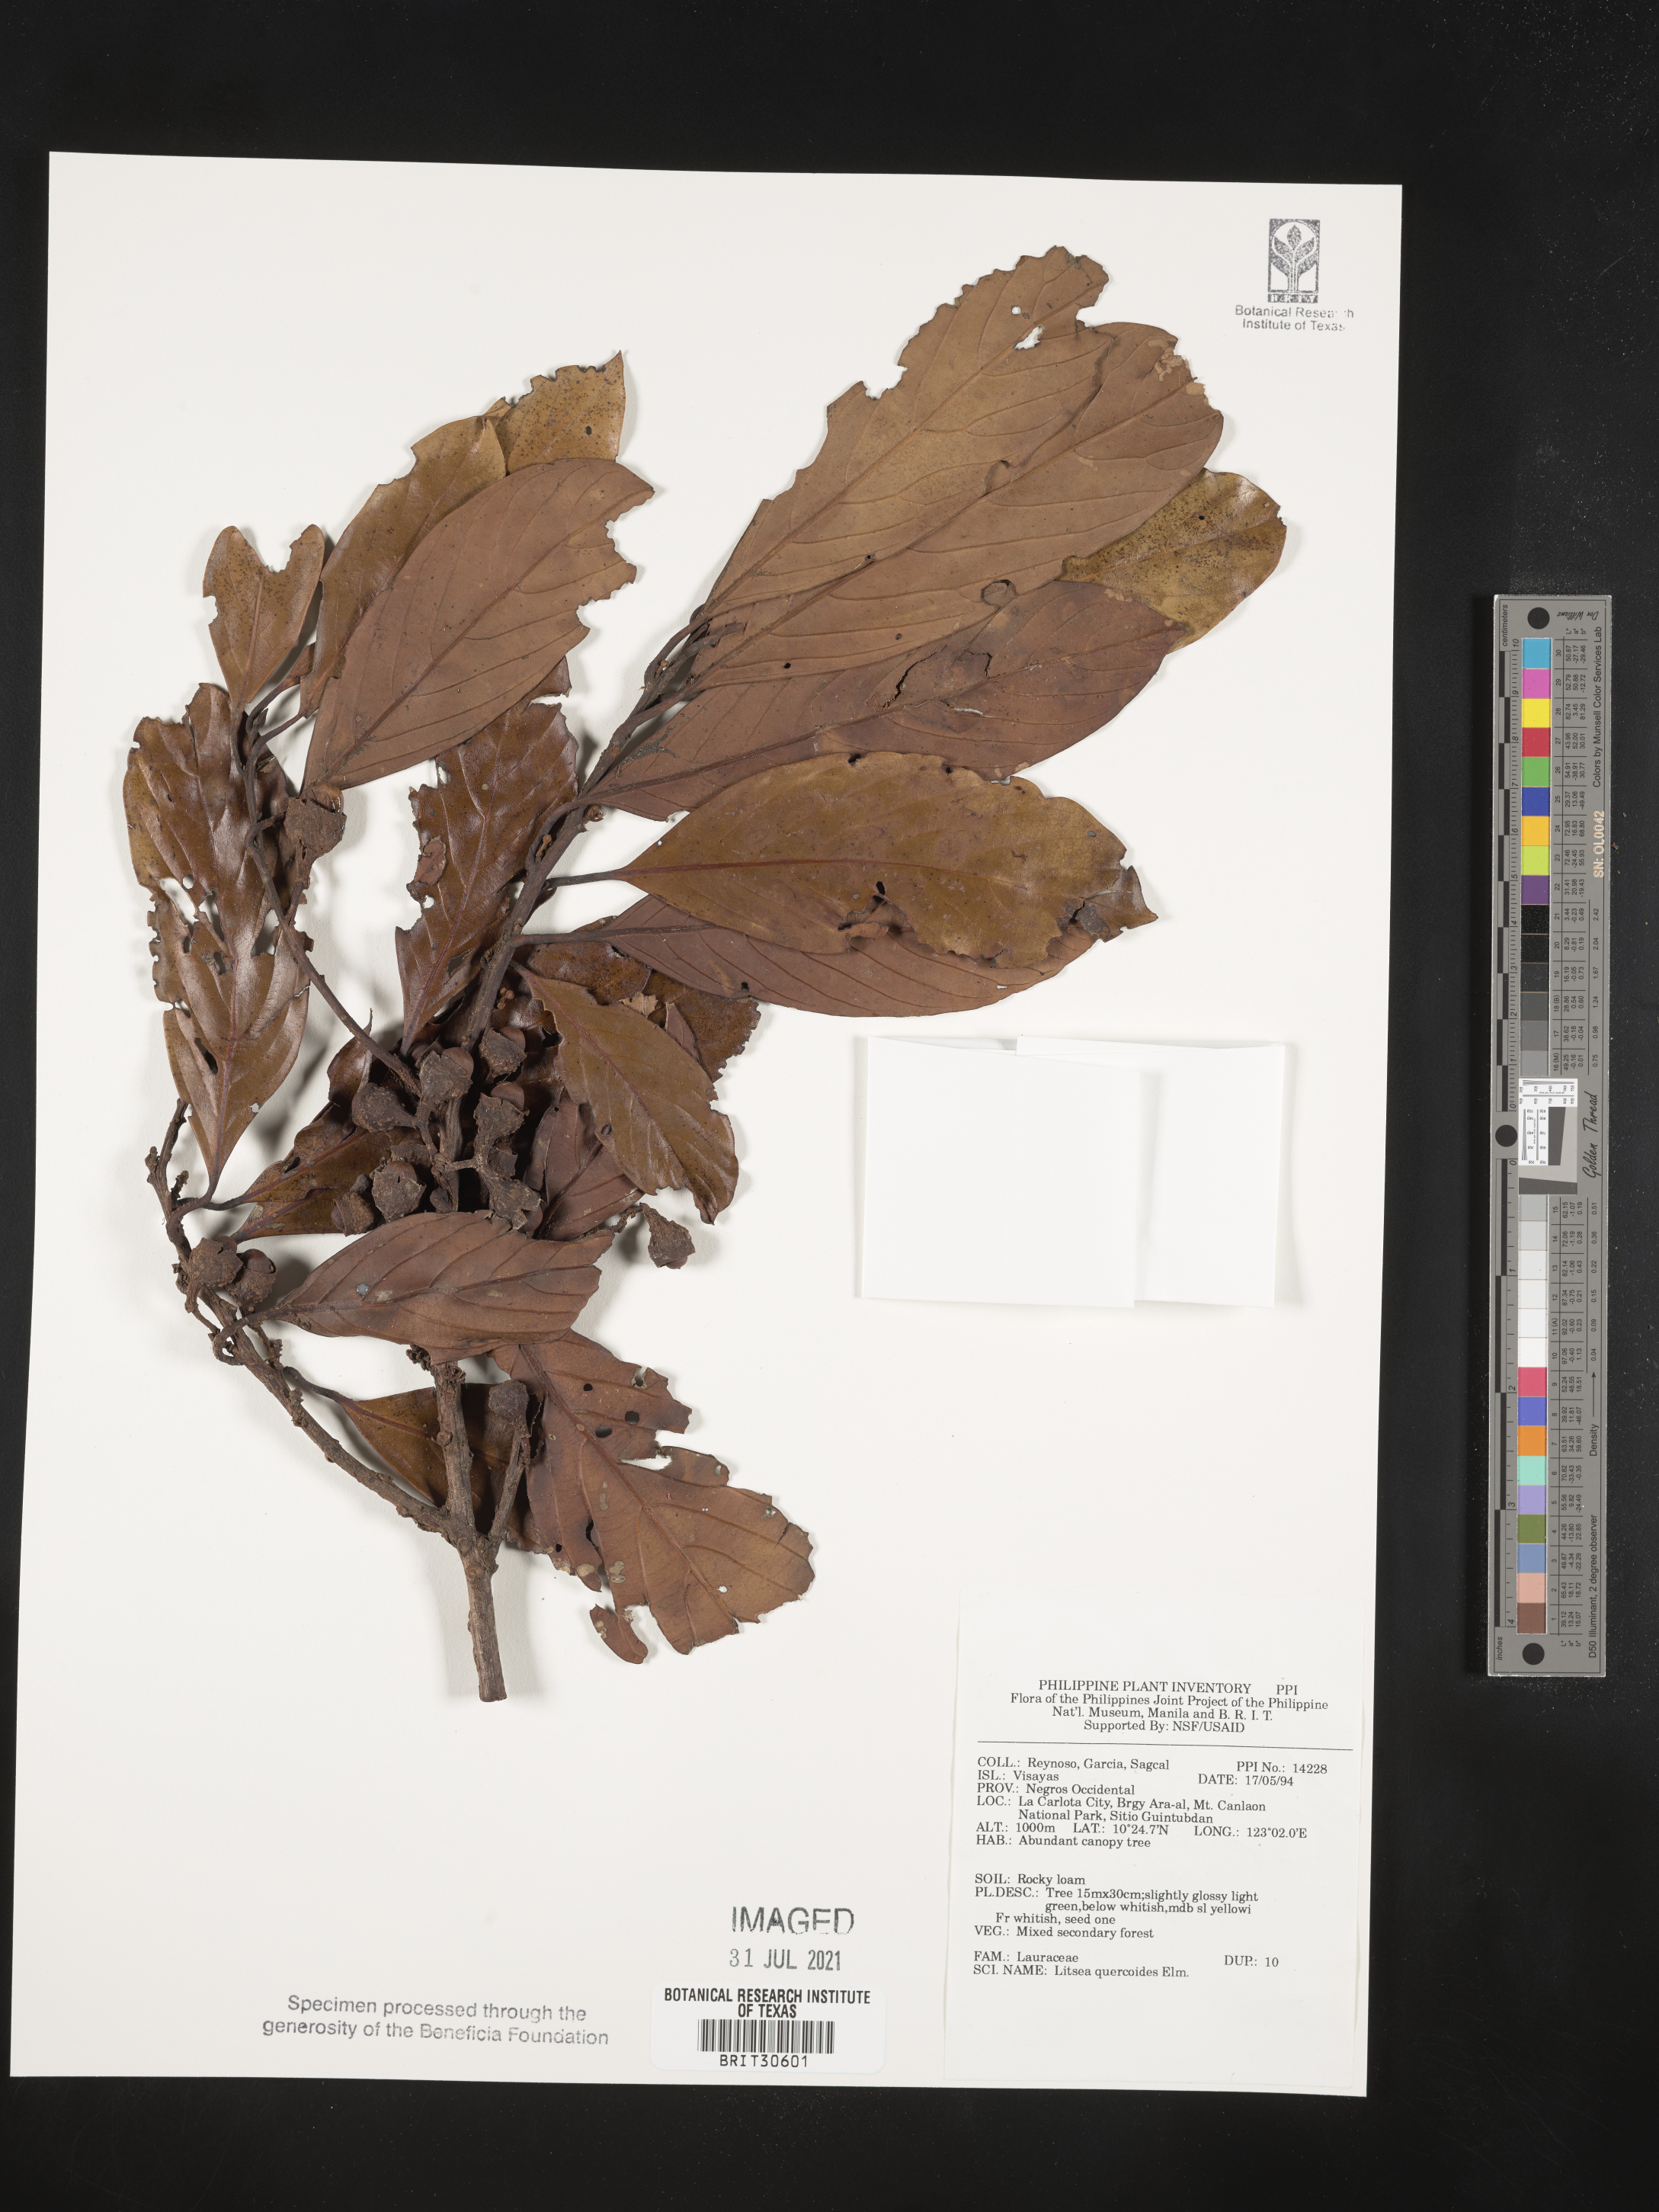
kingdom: Plantae
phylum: Tracheophyta
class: Magnoliopsida
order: Laurales
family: Lauraceae
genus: Litsea
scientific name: Litsea quercoides
